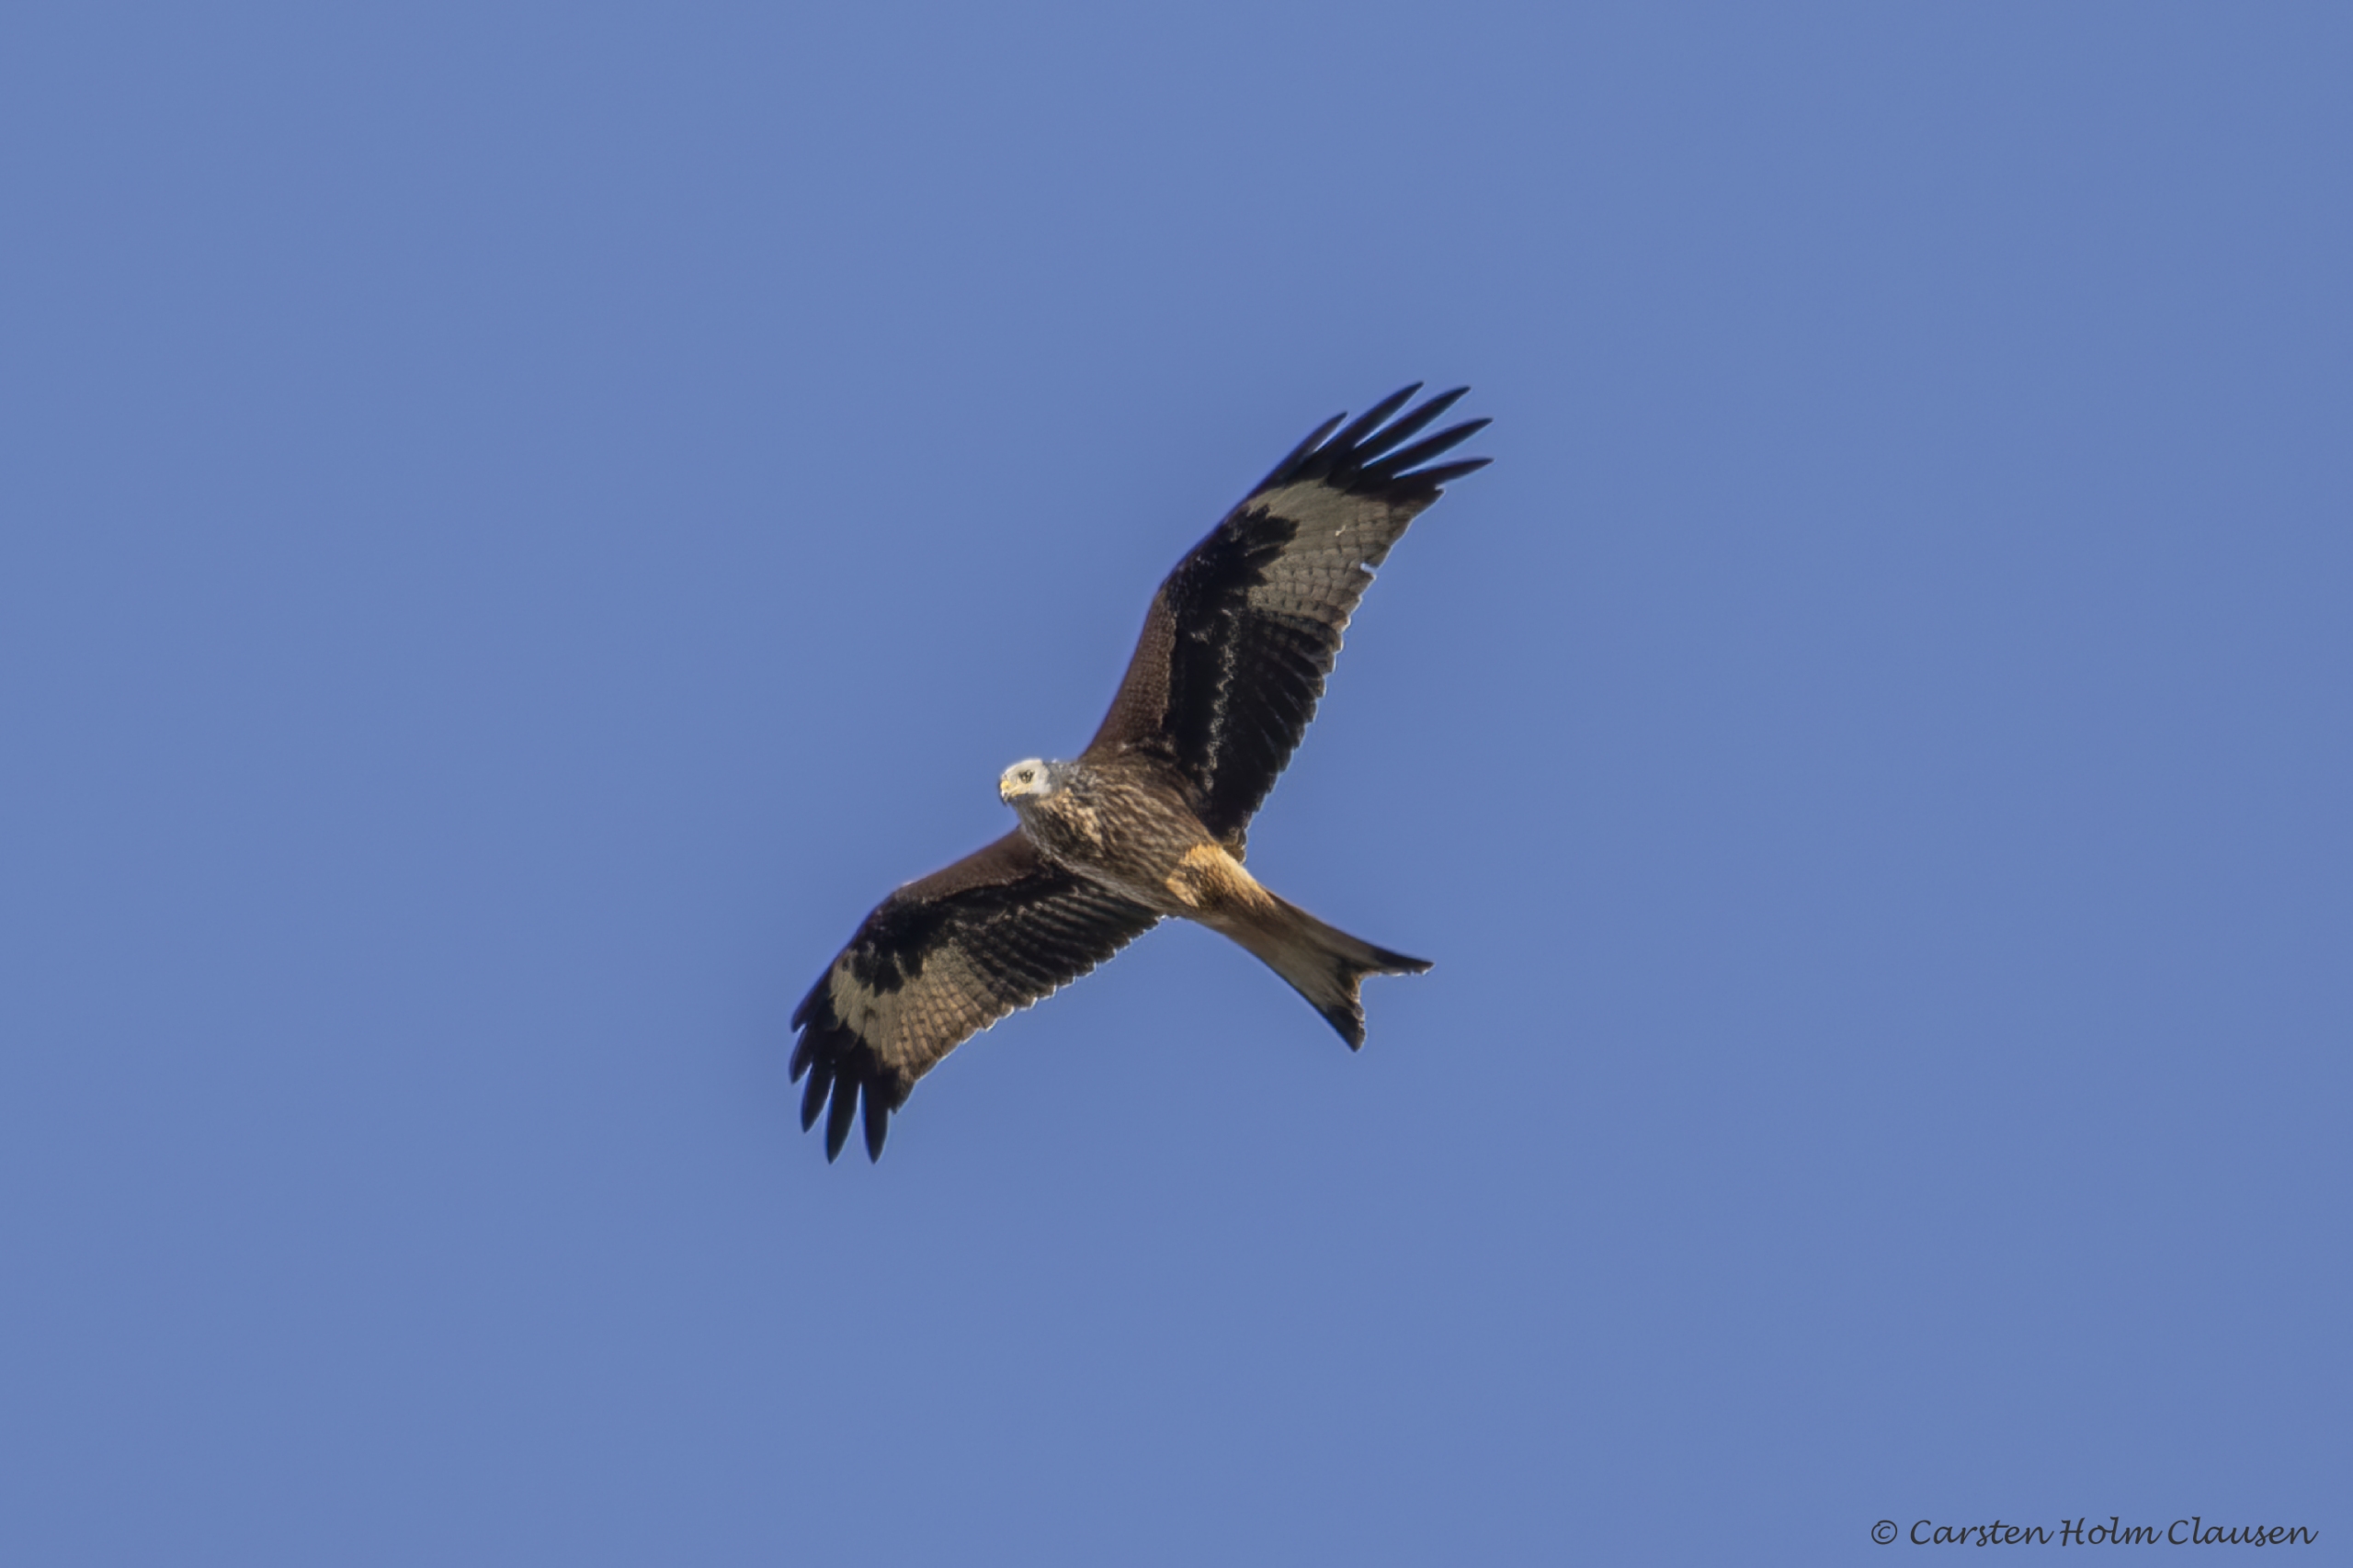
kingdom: Animalia
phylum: Chordata
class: Aves
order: Accipitriformes
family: Accipitridae
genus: Milvus
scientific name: Milvus milvus
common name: Rød glente
